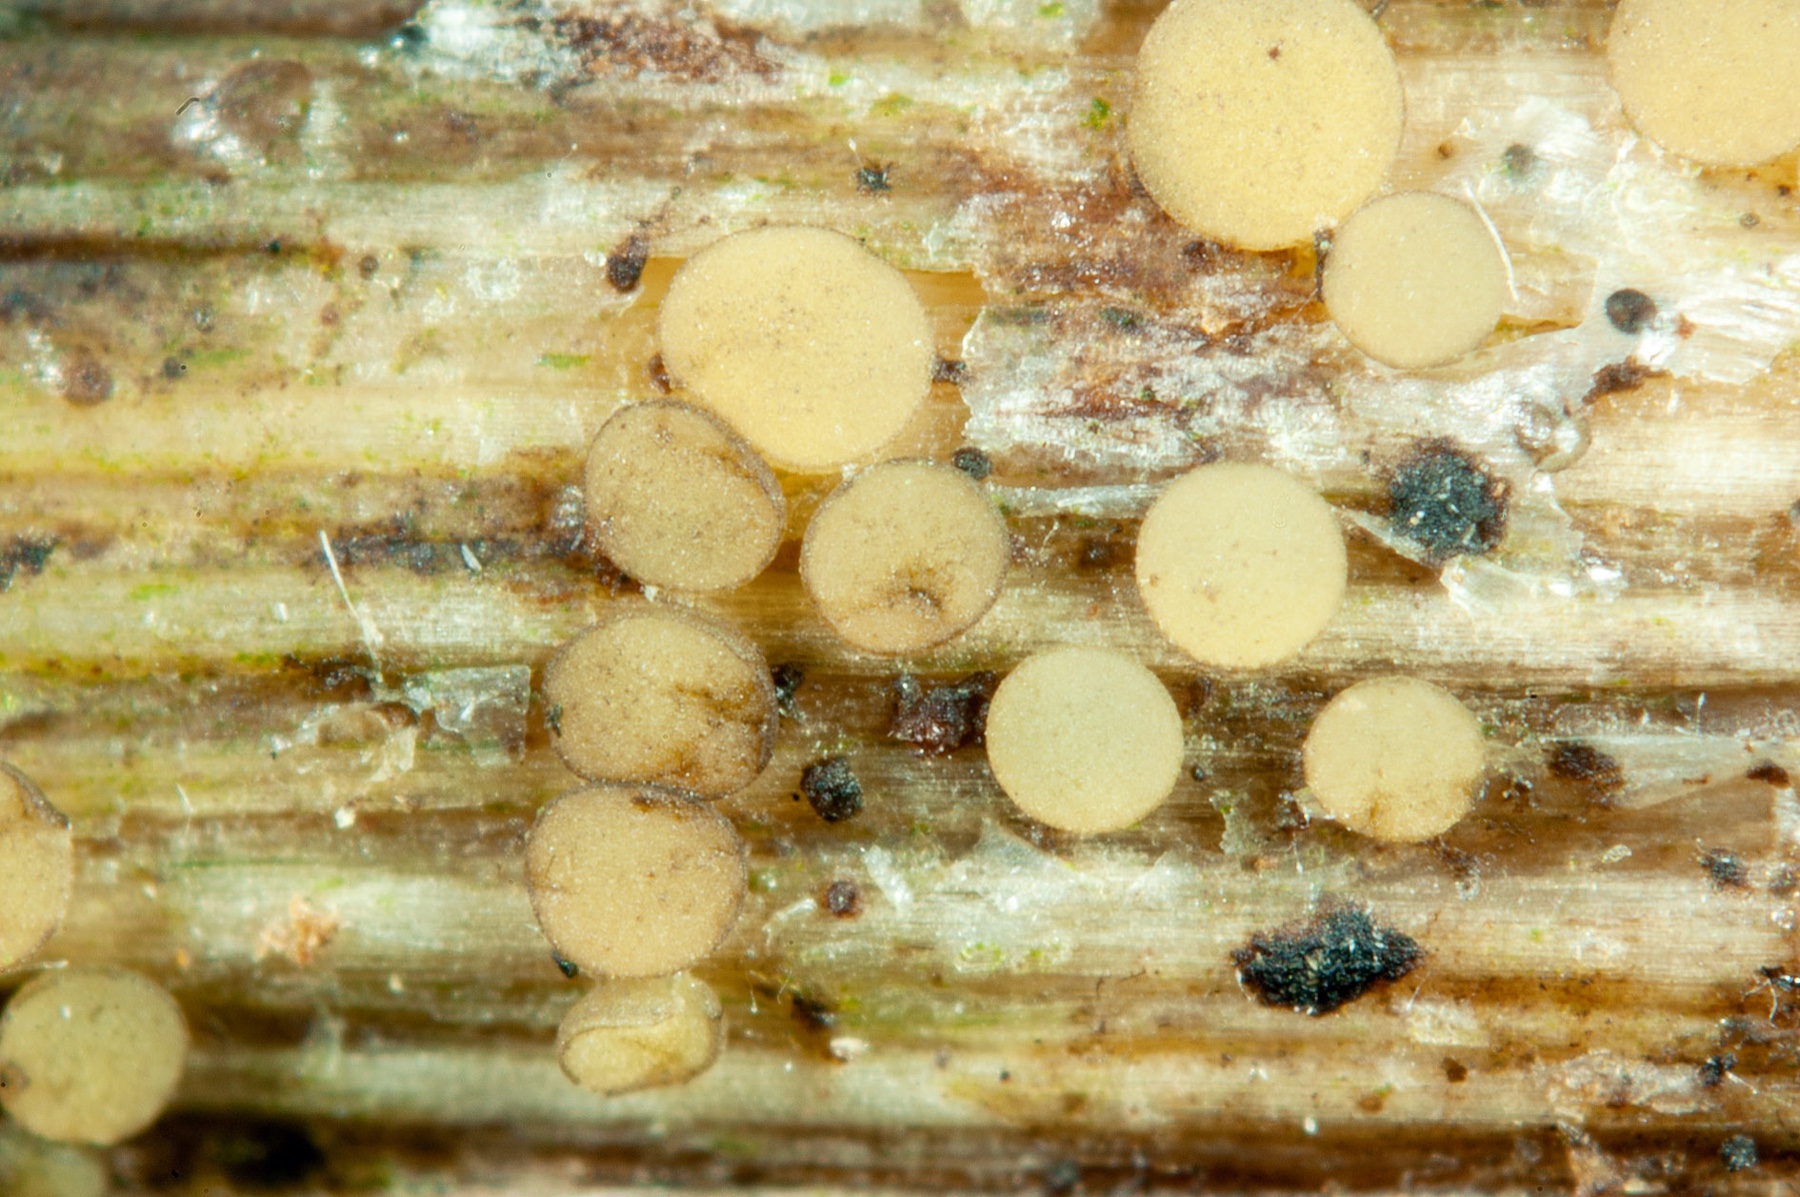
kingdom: Fungi
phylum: Ascomycota
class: Leotiomycetes
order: Helotiales
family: Pezizellaceae
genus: Micropeziza
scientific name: Micropeziza umbrinella
